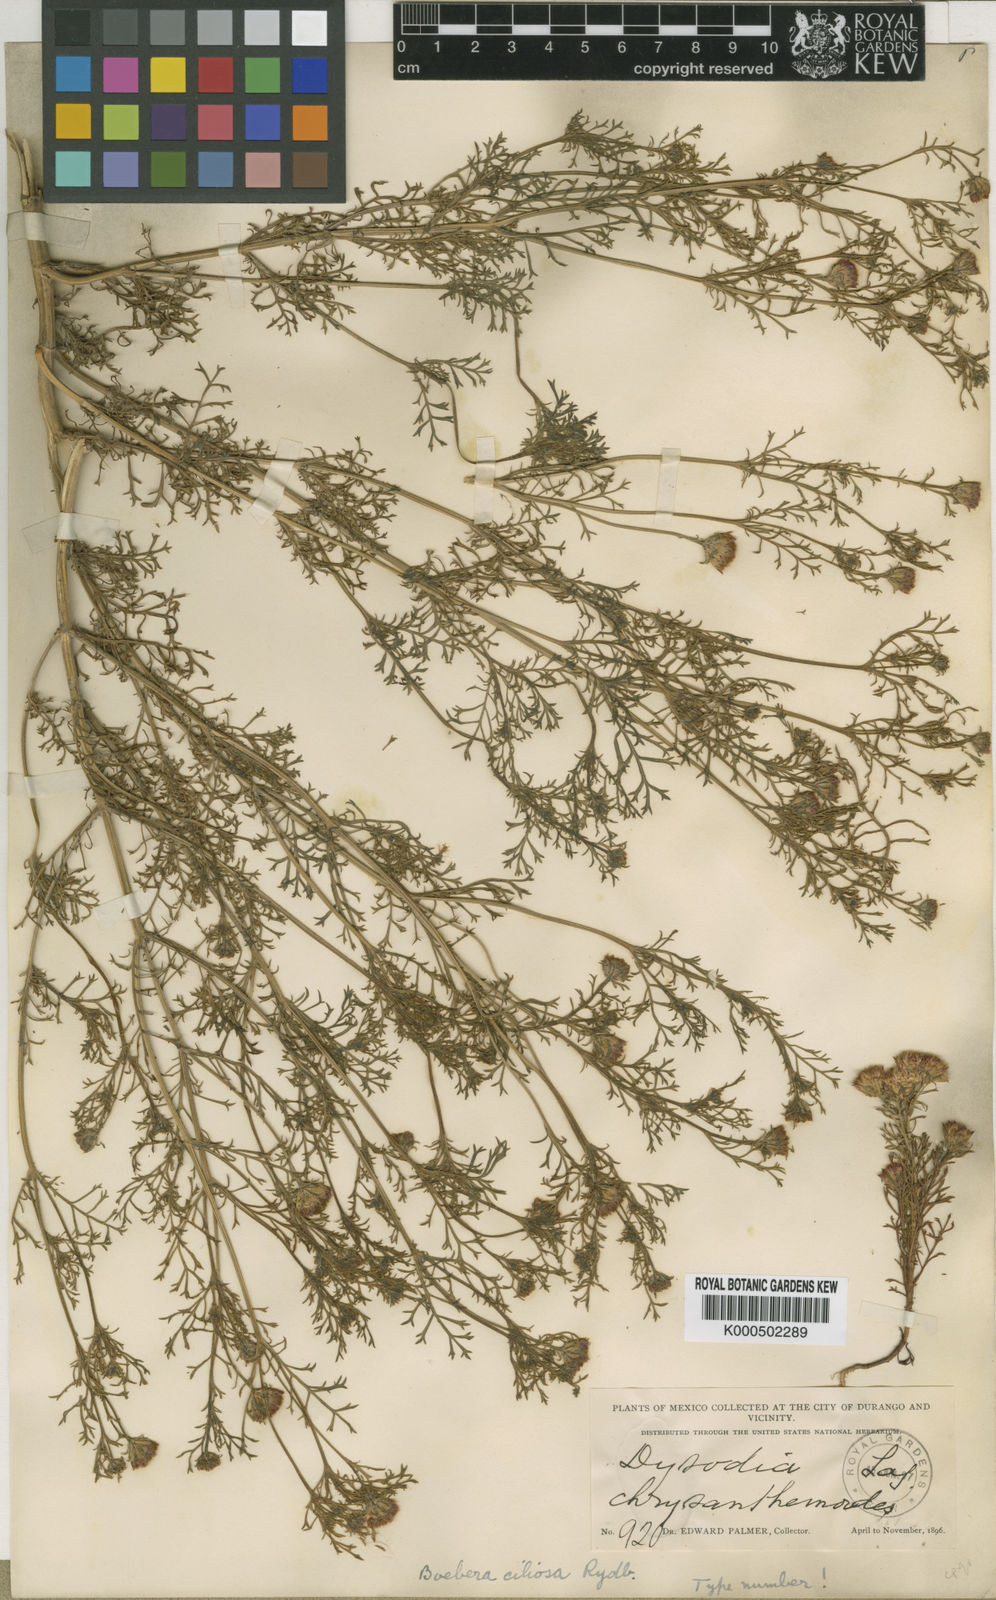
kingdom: Plantae
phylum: Tracheophyta
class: Magnoliopsida
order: Asterales
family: Asteraceae
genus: Dyssodia
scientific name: Dyssodia papposa
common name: Dogweed
